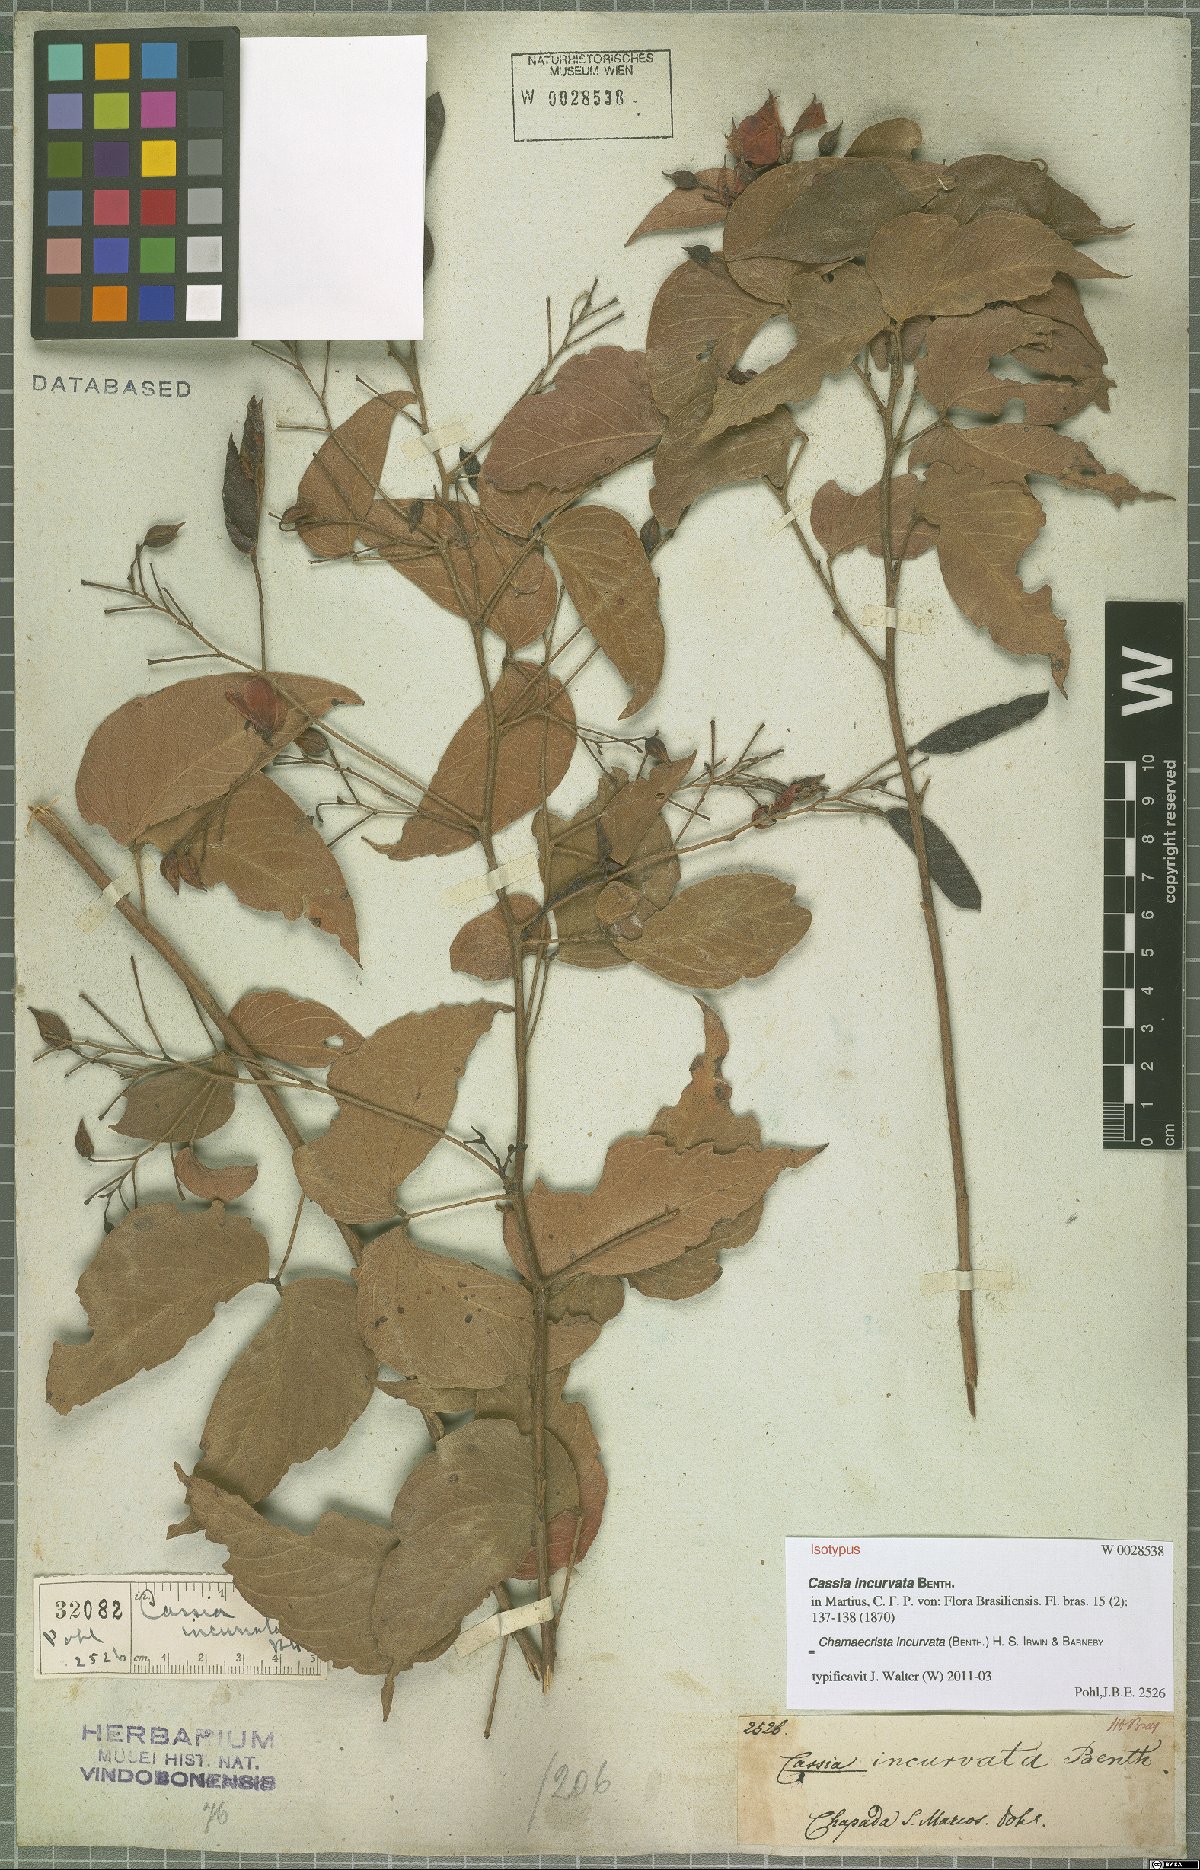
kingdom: Plantae
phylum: Tracheophyta
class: Magnoliopsida
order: Fabales
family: Fabaceae
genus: Chamaecrista
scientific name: Chamaecrista incurvata
